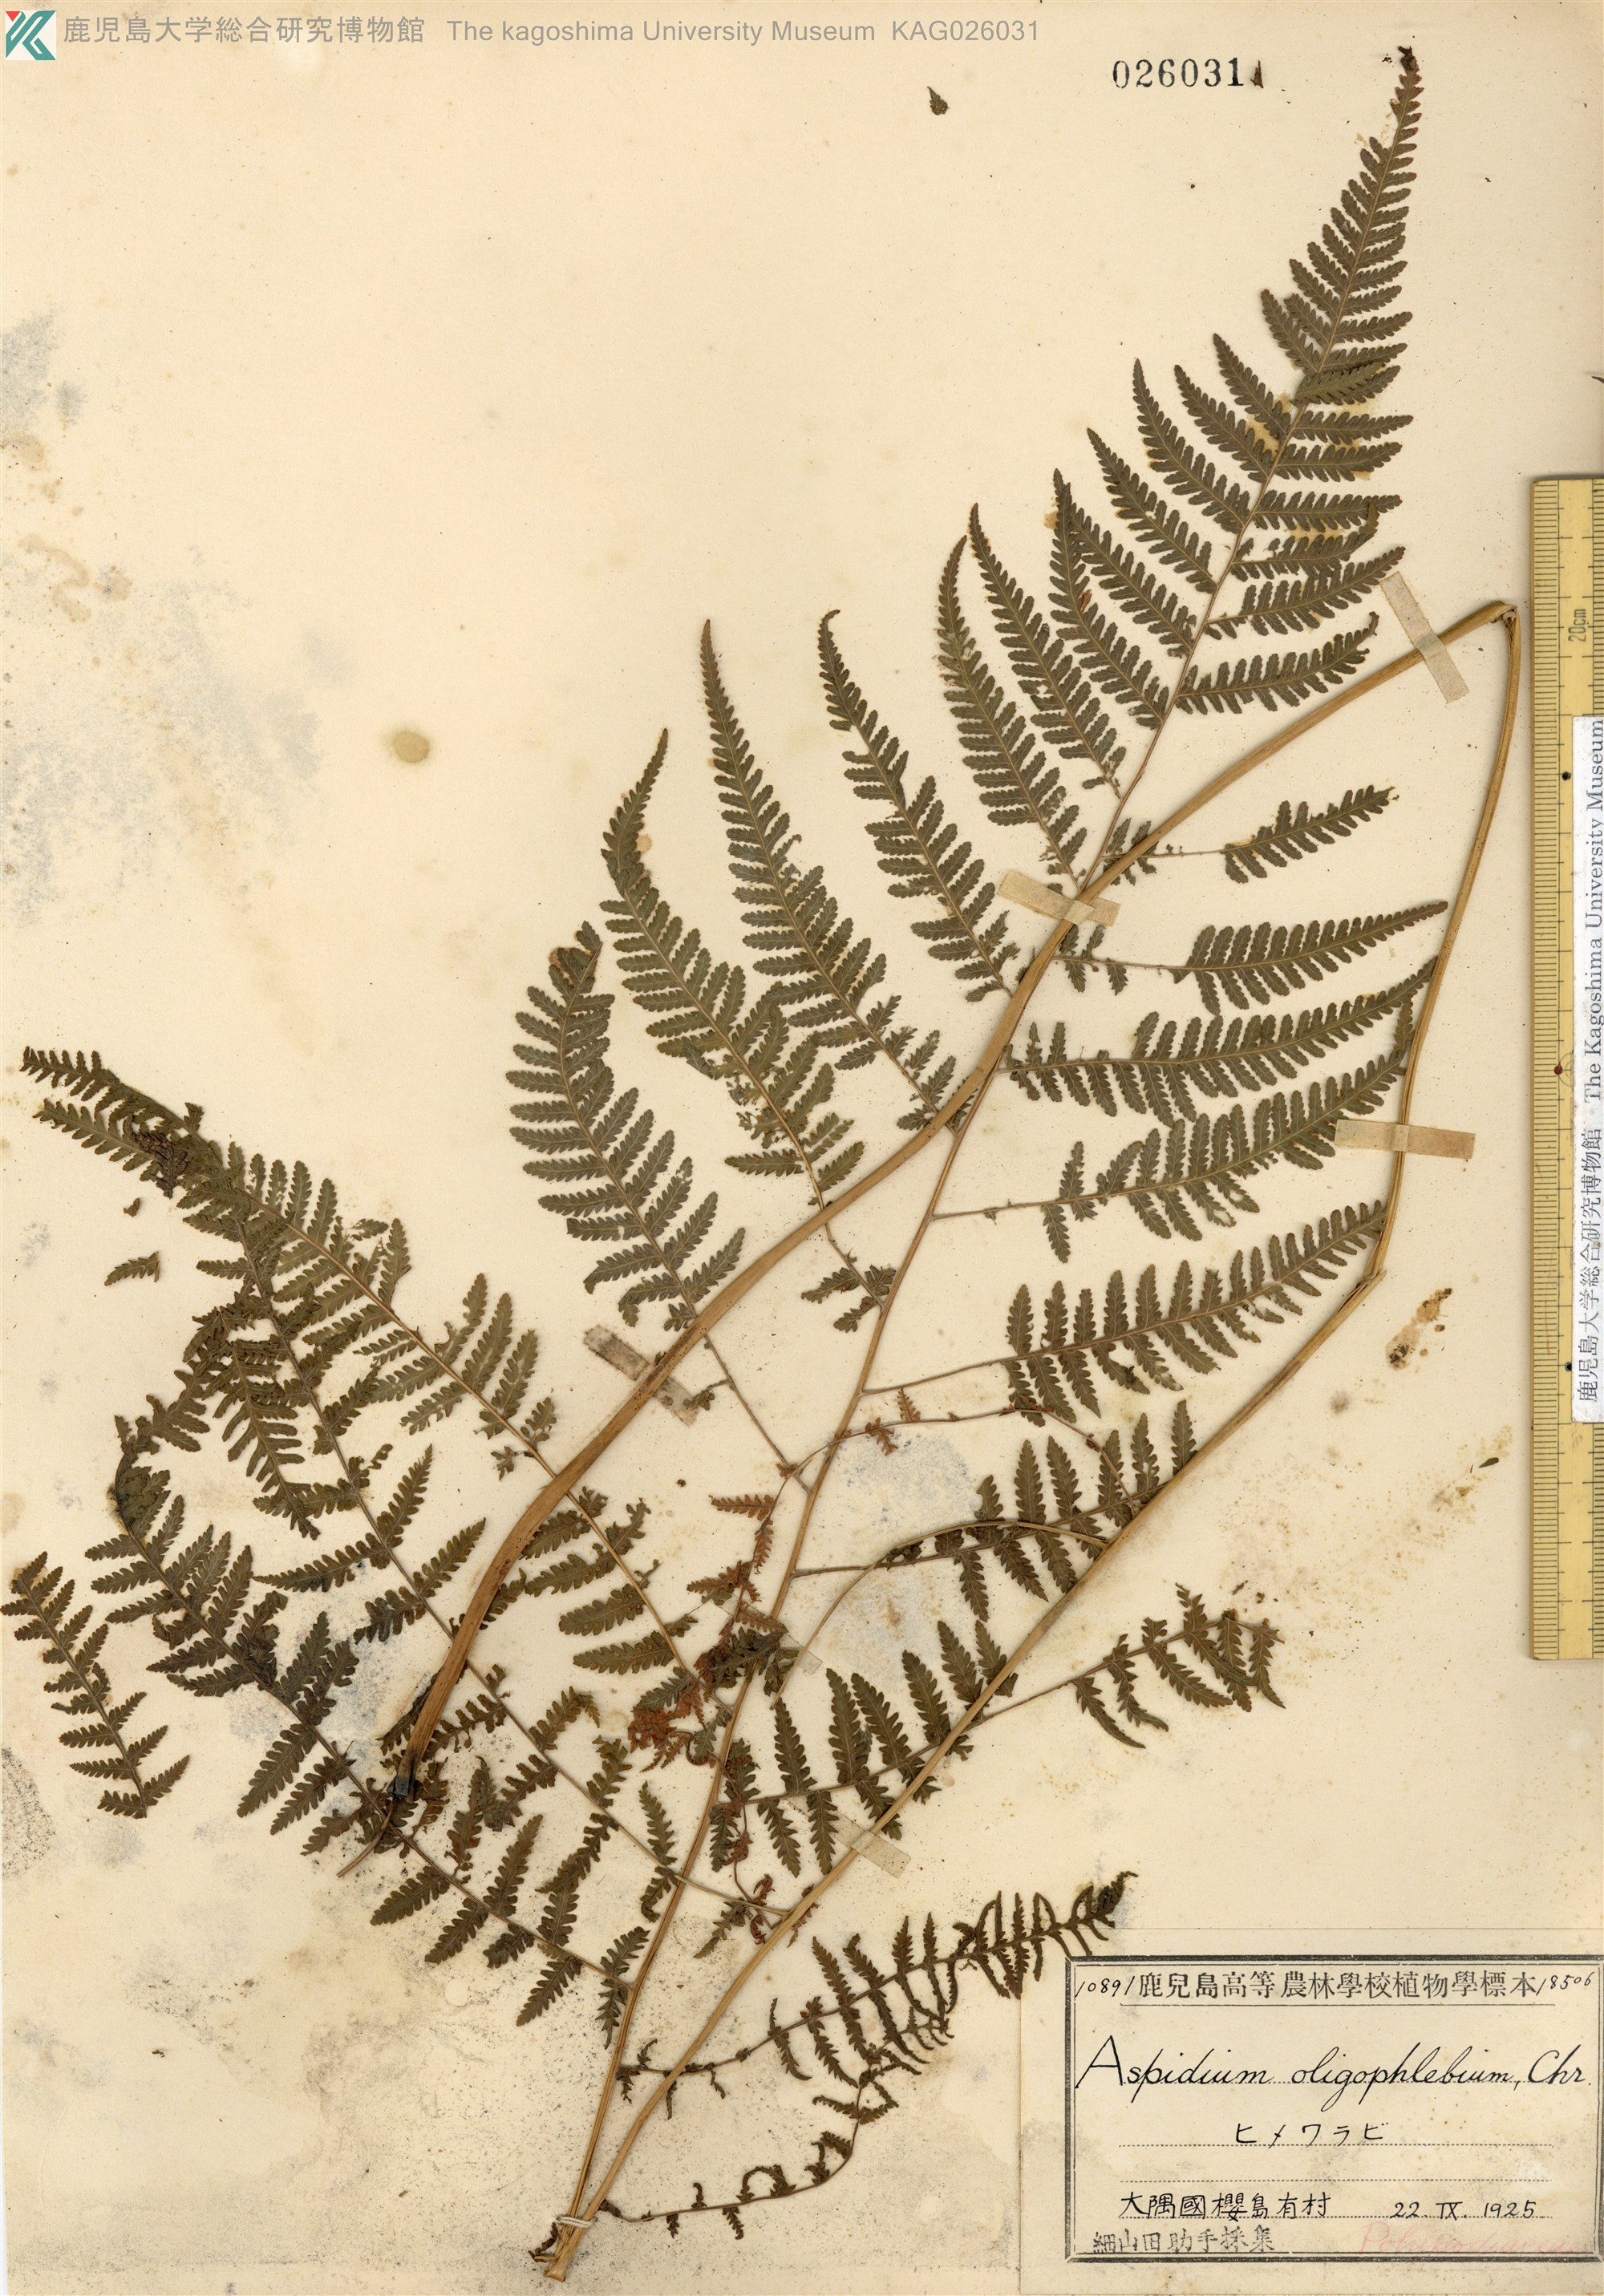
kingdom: Plantae
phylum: Tracheophyta
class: Polypodiopsida
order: Polypodiales
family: Thelypteridaceae
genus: Macrothelypteris
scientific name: Macrothelypteris oligophlebia
